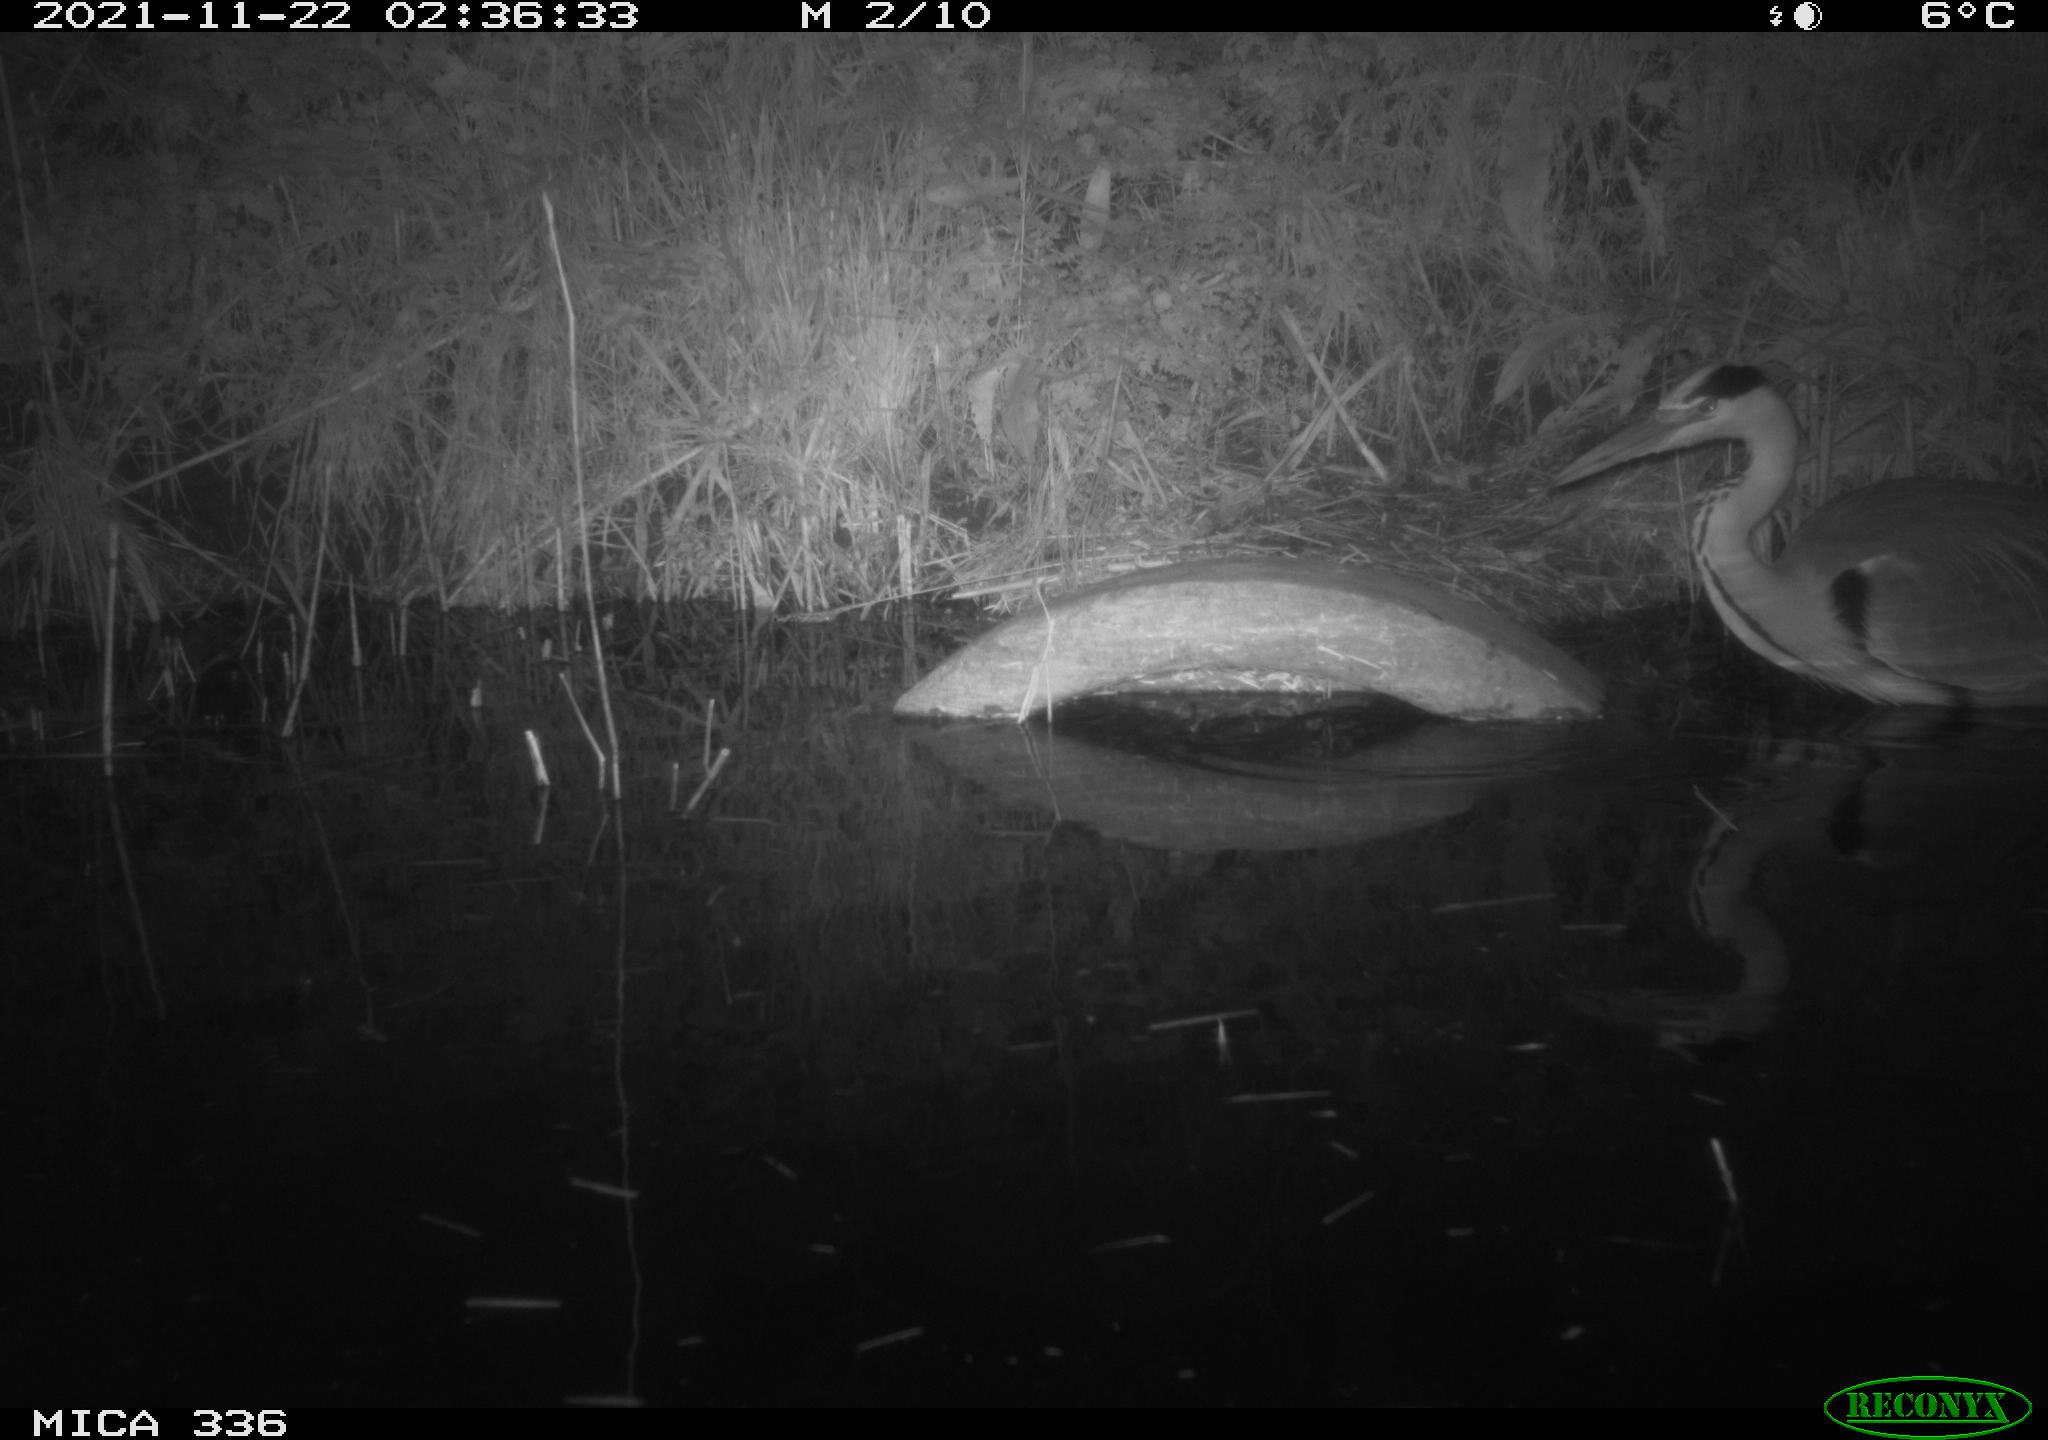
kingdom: Animalia
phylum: Chordata
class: Aves
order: Pelecaniformes
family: Ardeidae
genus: Ardea
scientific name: Ardea cinerea
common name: Grey heron
